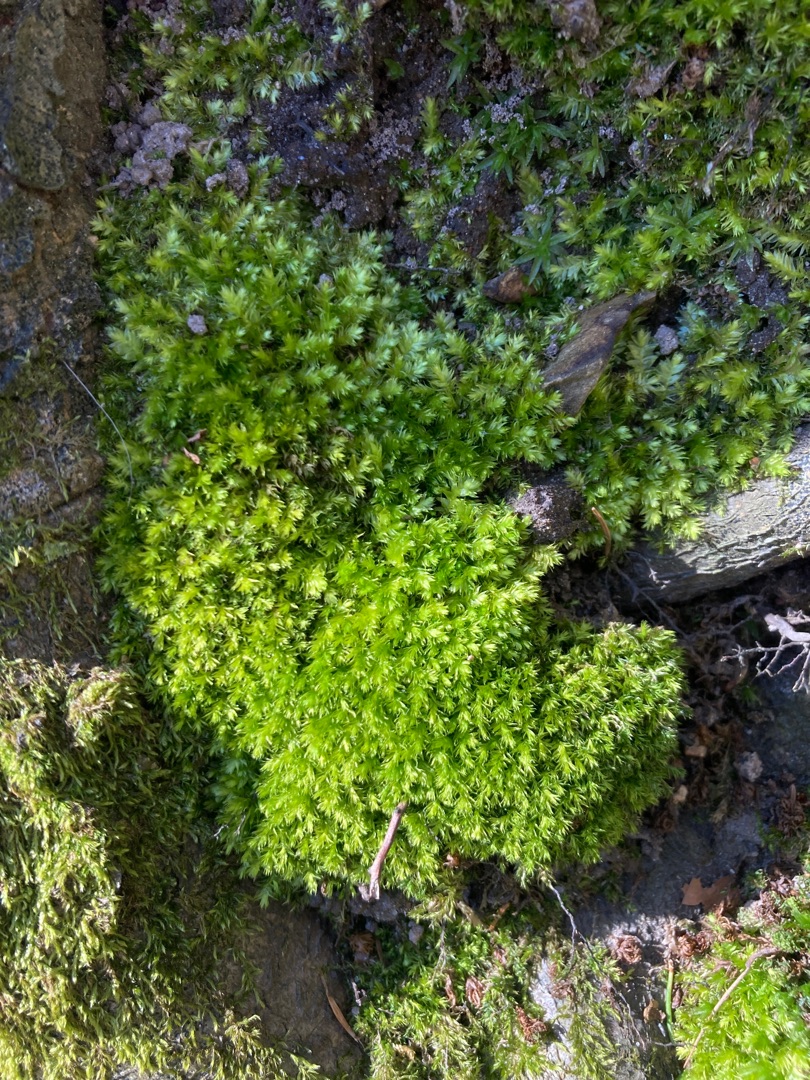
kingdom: Plantae
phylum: Bryophyta
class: Bryopsida
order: Hypnales
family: Plagiotheciaceae
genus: Plagiothecium
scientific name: Plagiothecium
